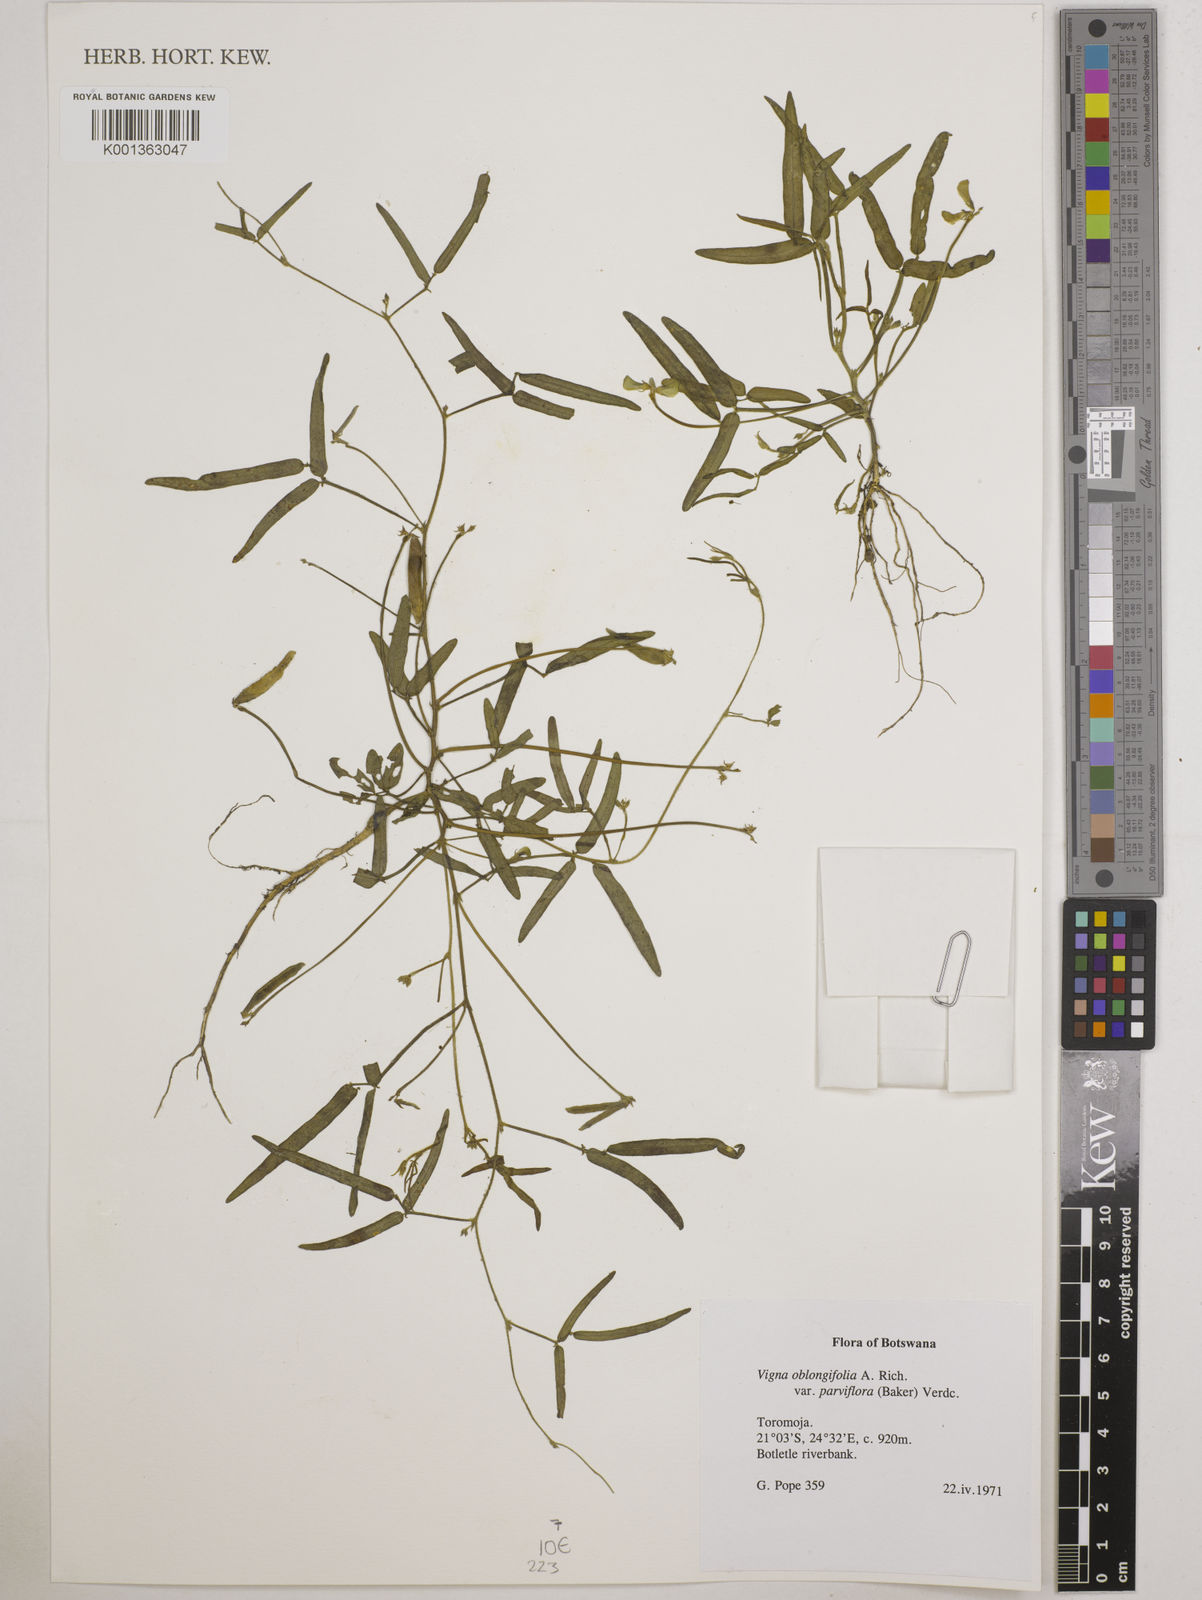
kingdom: Plantae
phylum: Tracheophyta
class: Magnoliopsida
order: Fabales
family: Fabaceae
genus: Vigna
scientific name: Vigna
